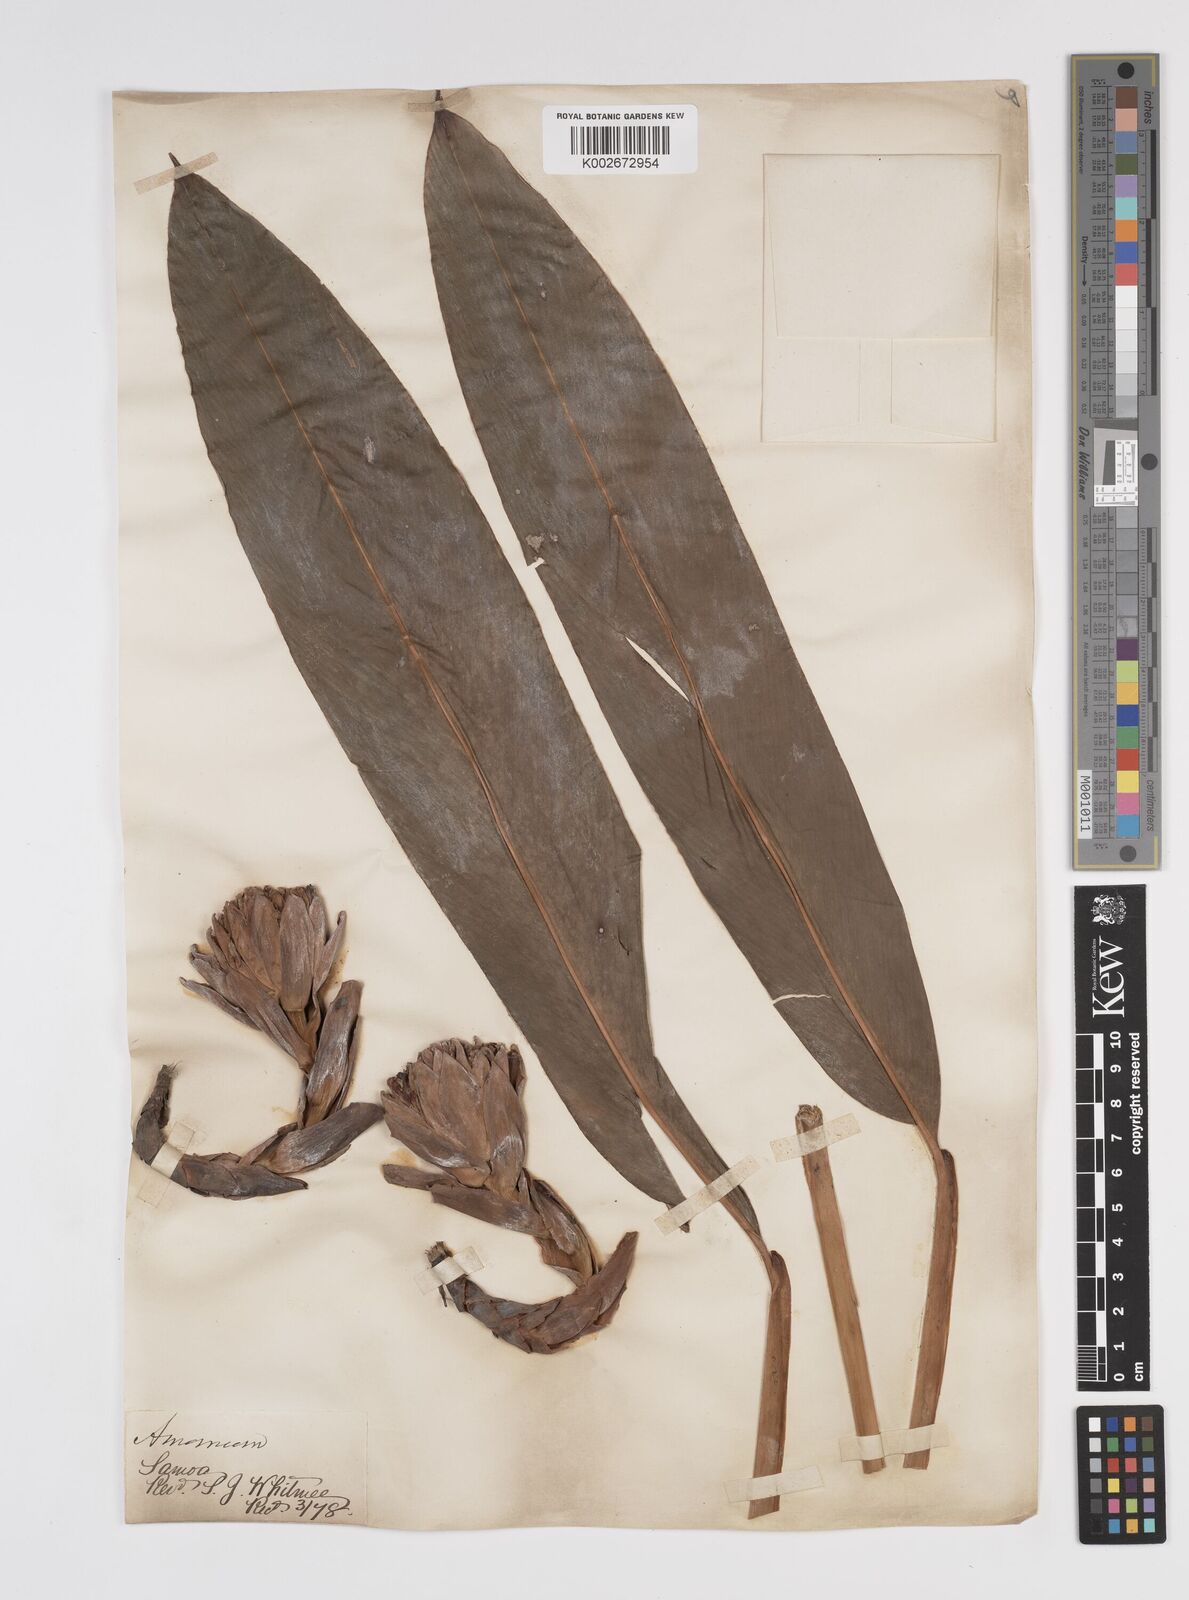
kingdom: Plantae
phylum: Tracheophyta
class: Liliopsida
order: Zingiberales
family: Zingiberaceae
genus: Etlingera
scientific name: Etlingera cevuga
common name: Waxflower
